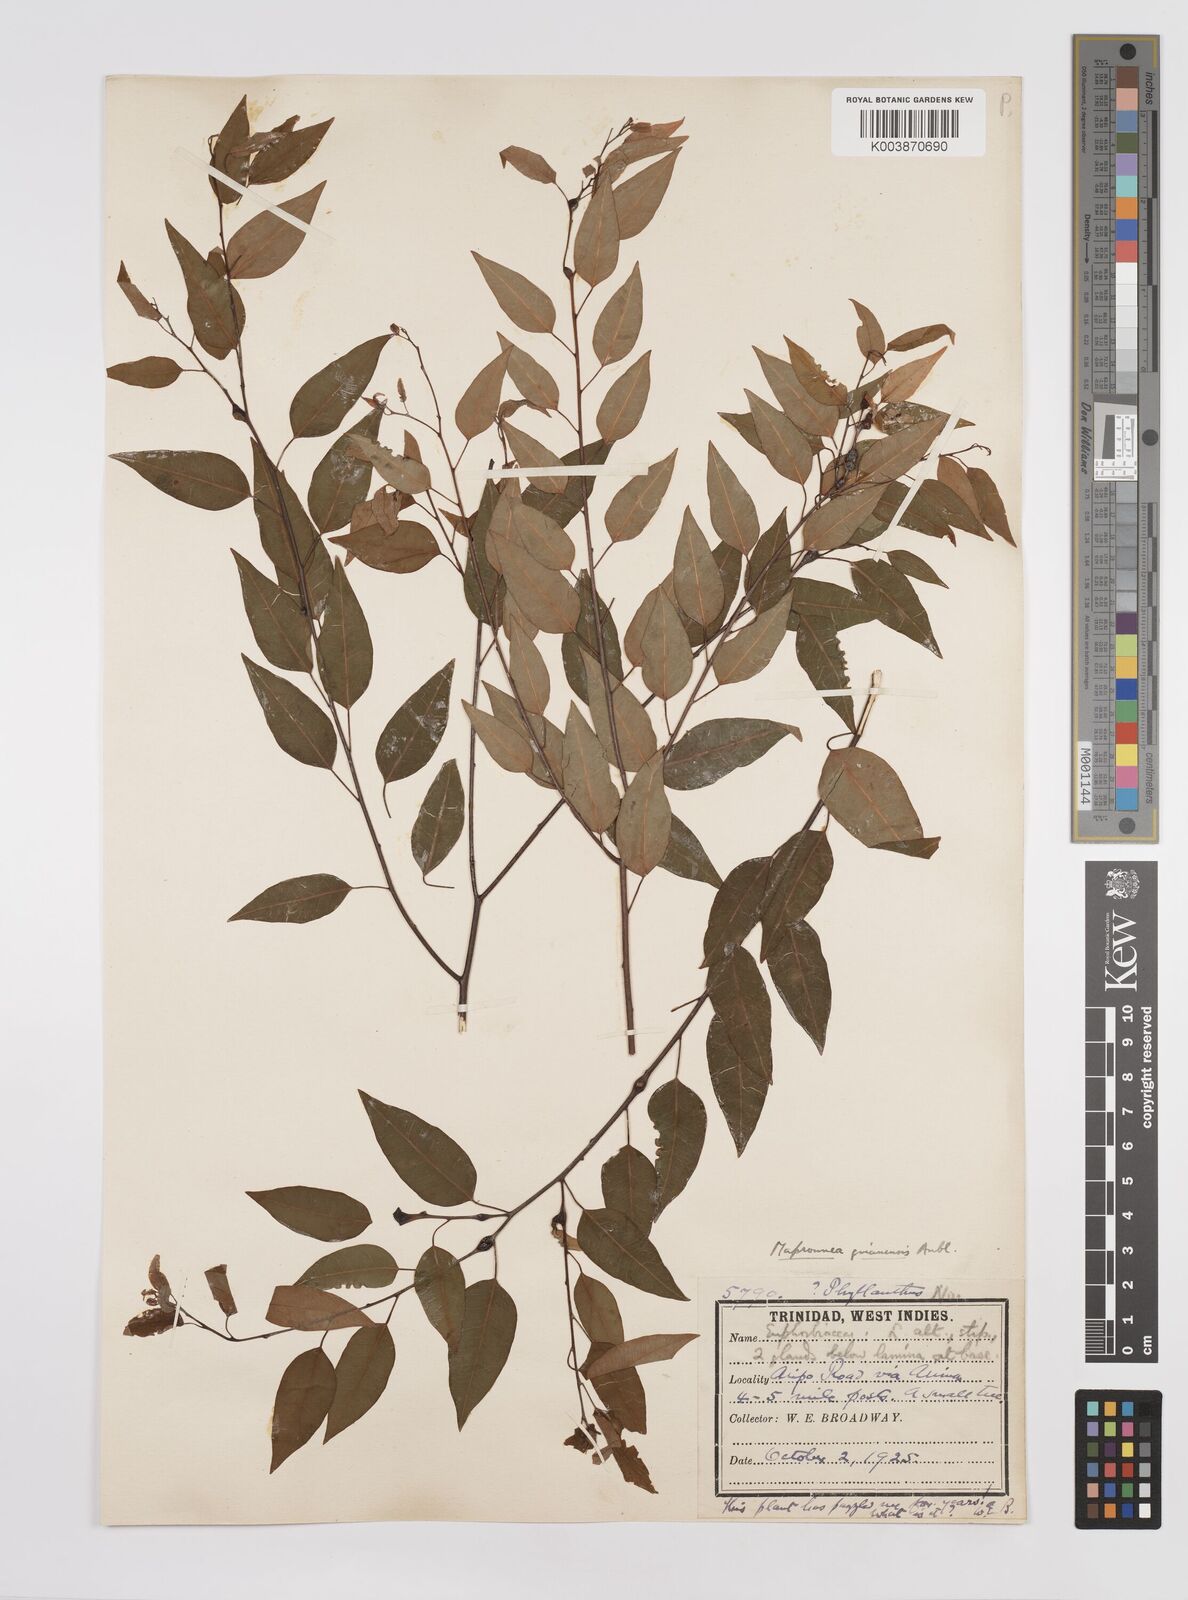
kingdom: Plantae
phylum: Tracheophyta
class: Magnoliopsida
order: Malpighiales
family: Euphorbiaceae
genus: Maprounea
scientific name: Maprounea guianensis
